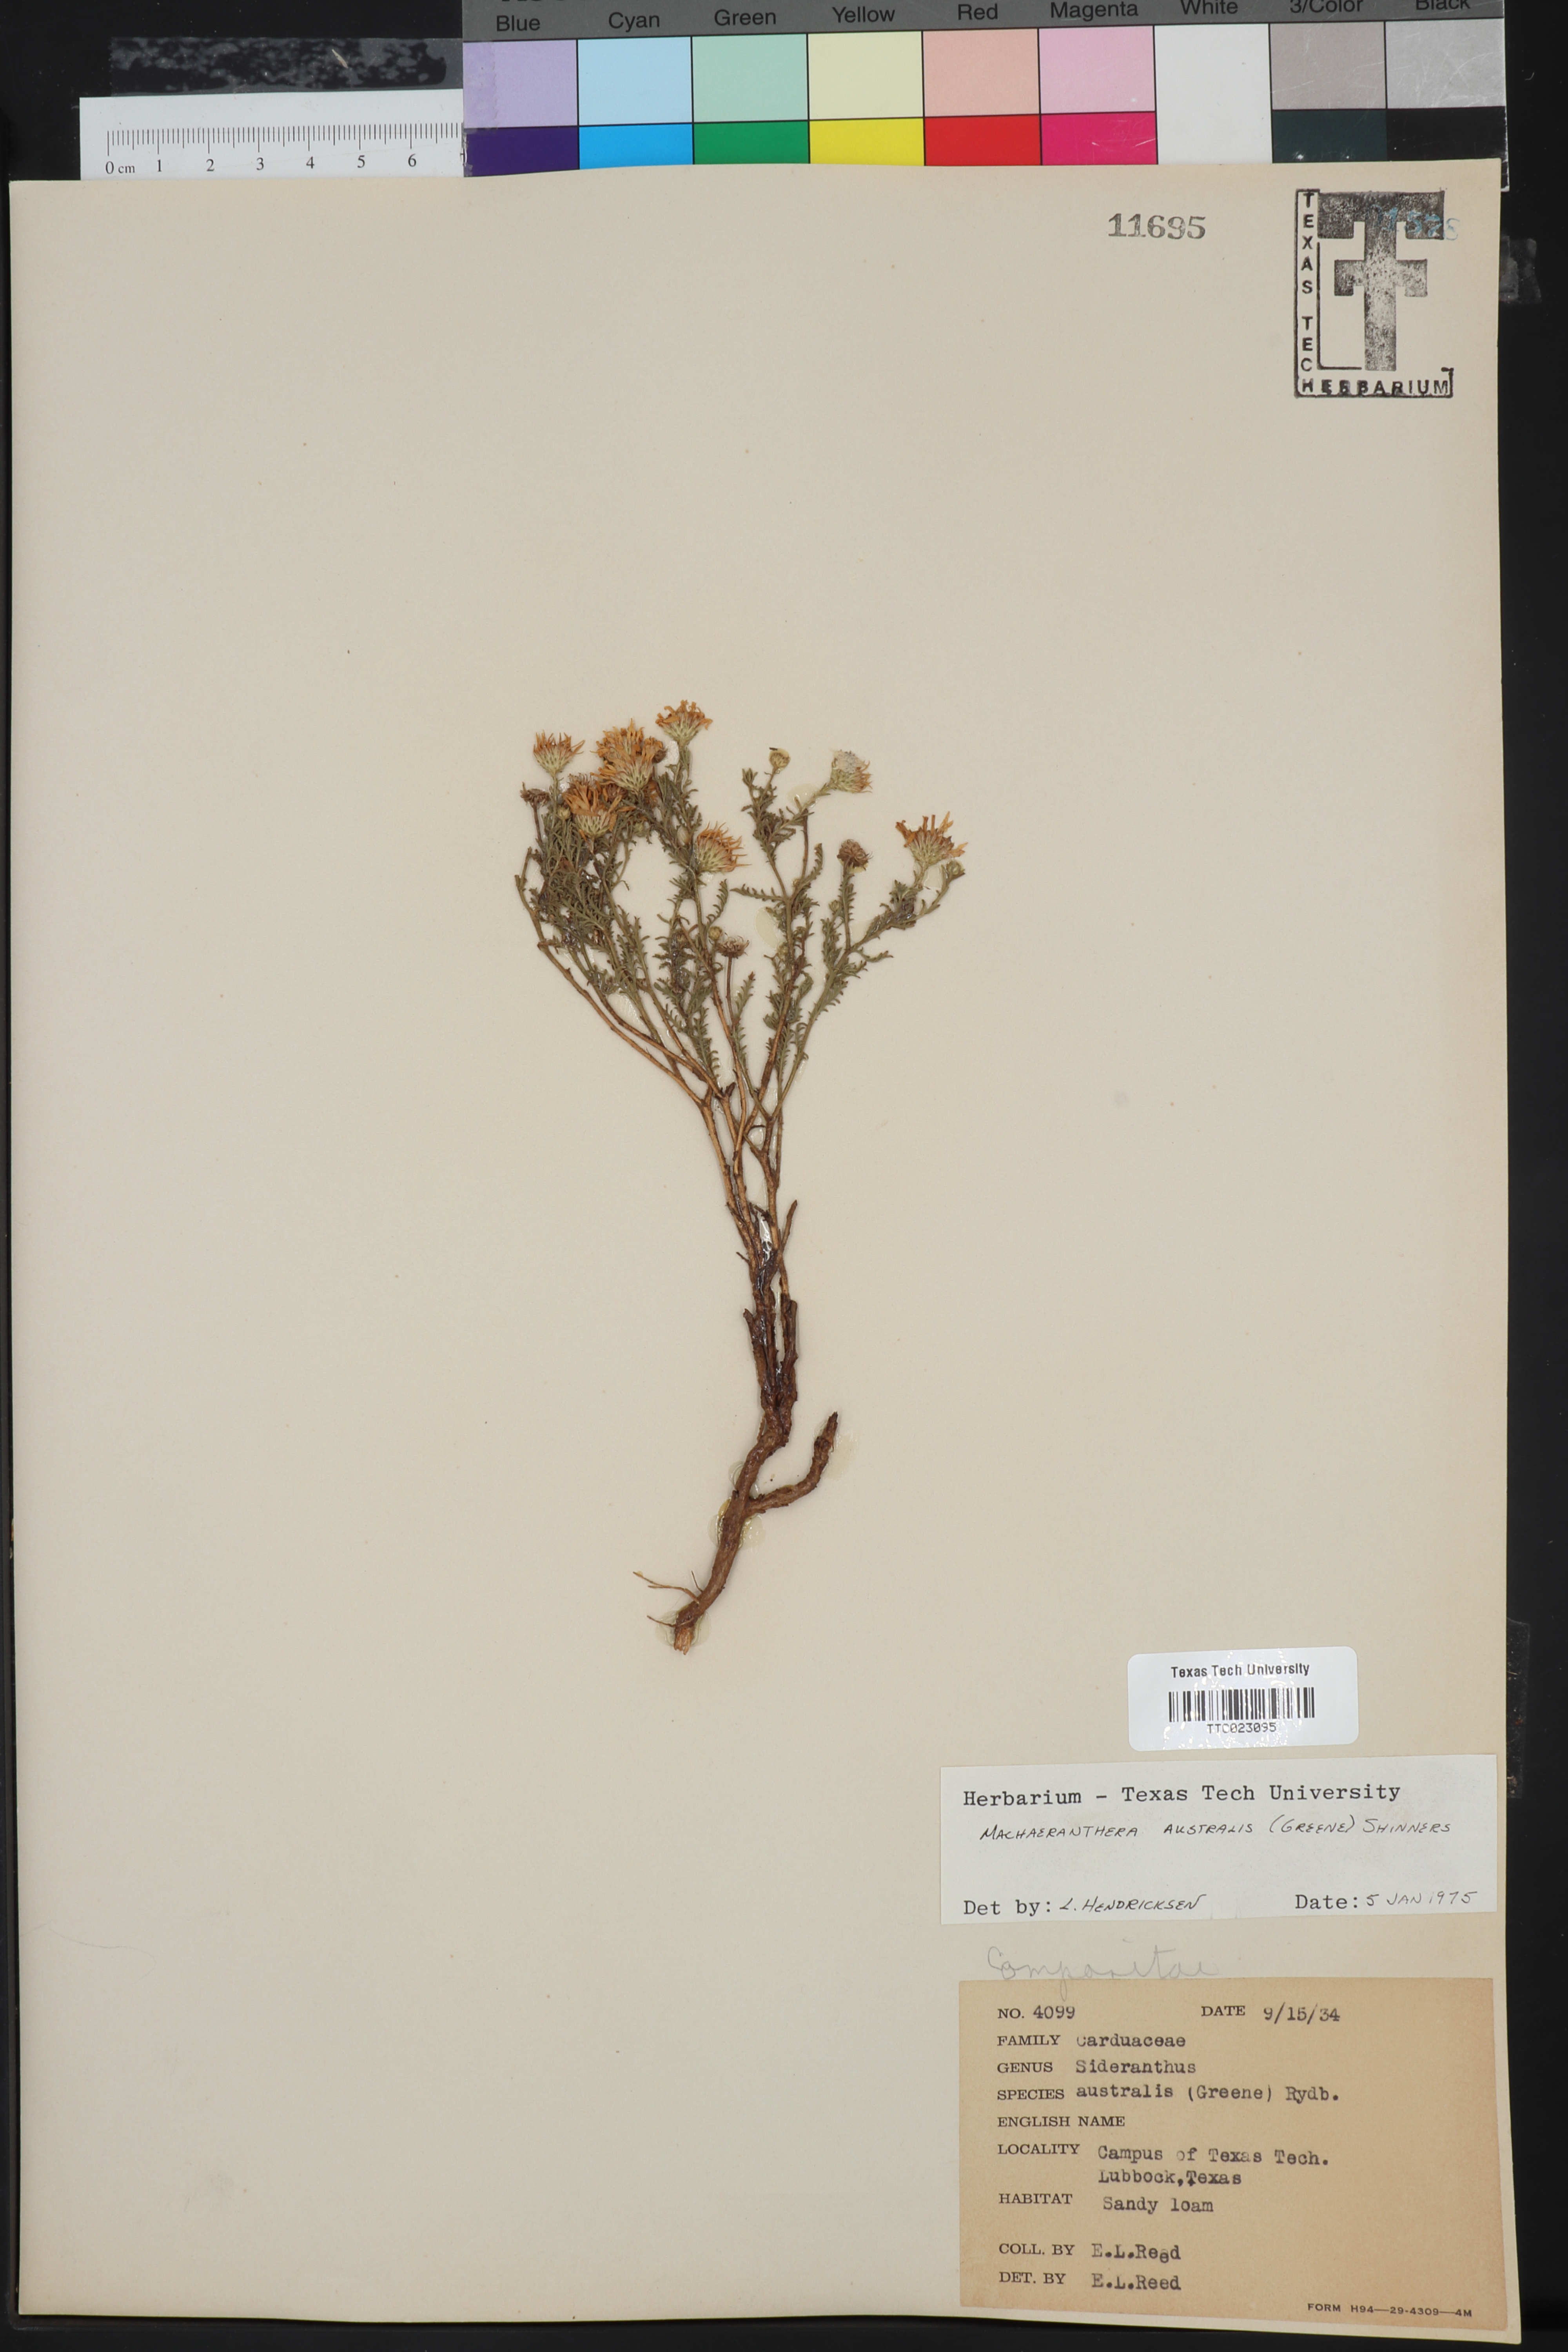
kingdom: Plantae
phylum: Tracheophyta
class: Magnoliopsida
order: Asterales
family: Asteraceae
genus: Xanthisma
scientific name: Xanthisma spinulosum
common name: Spiny goldenweed
